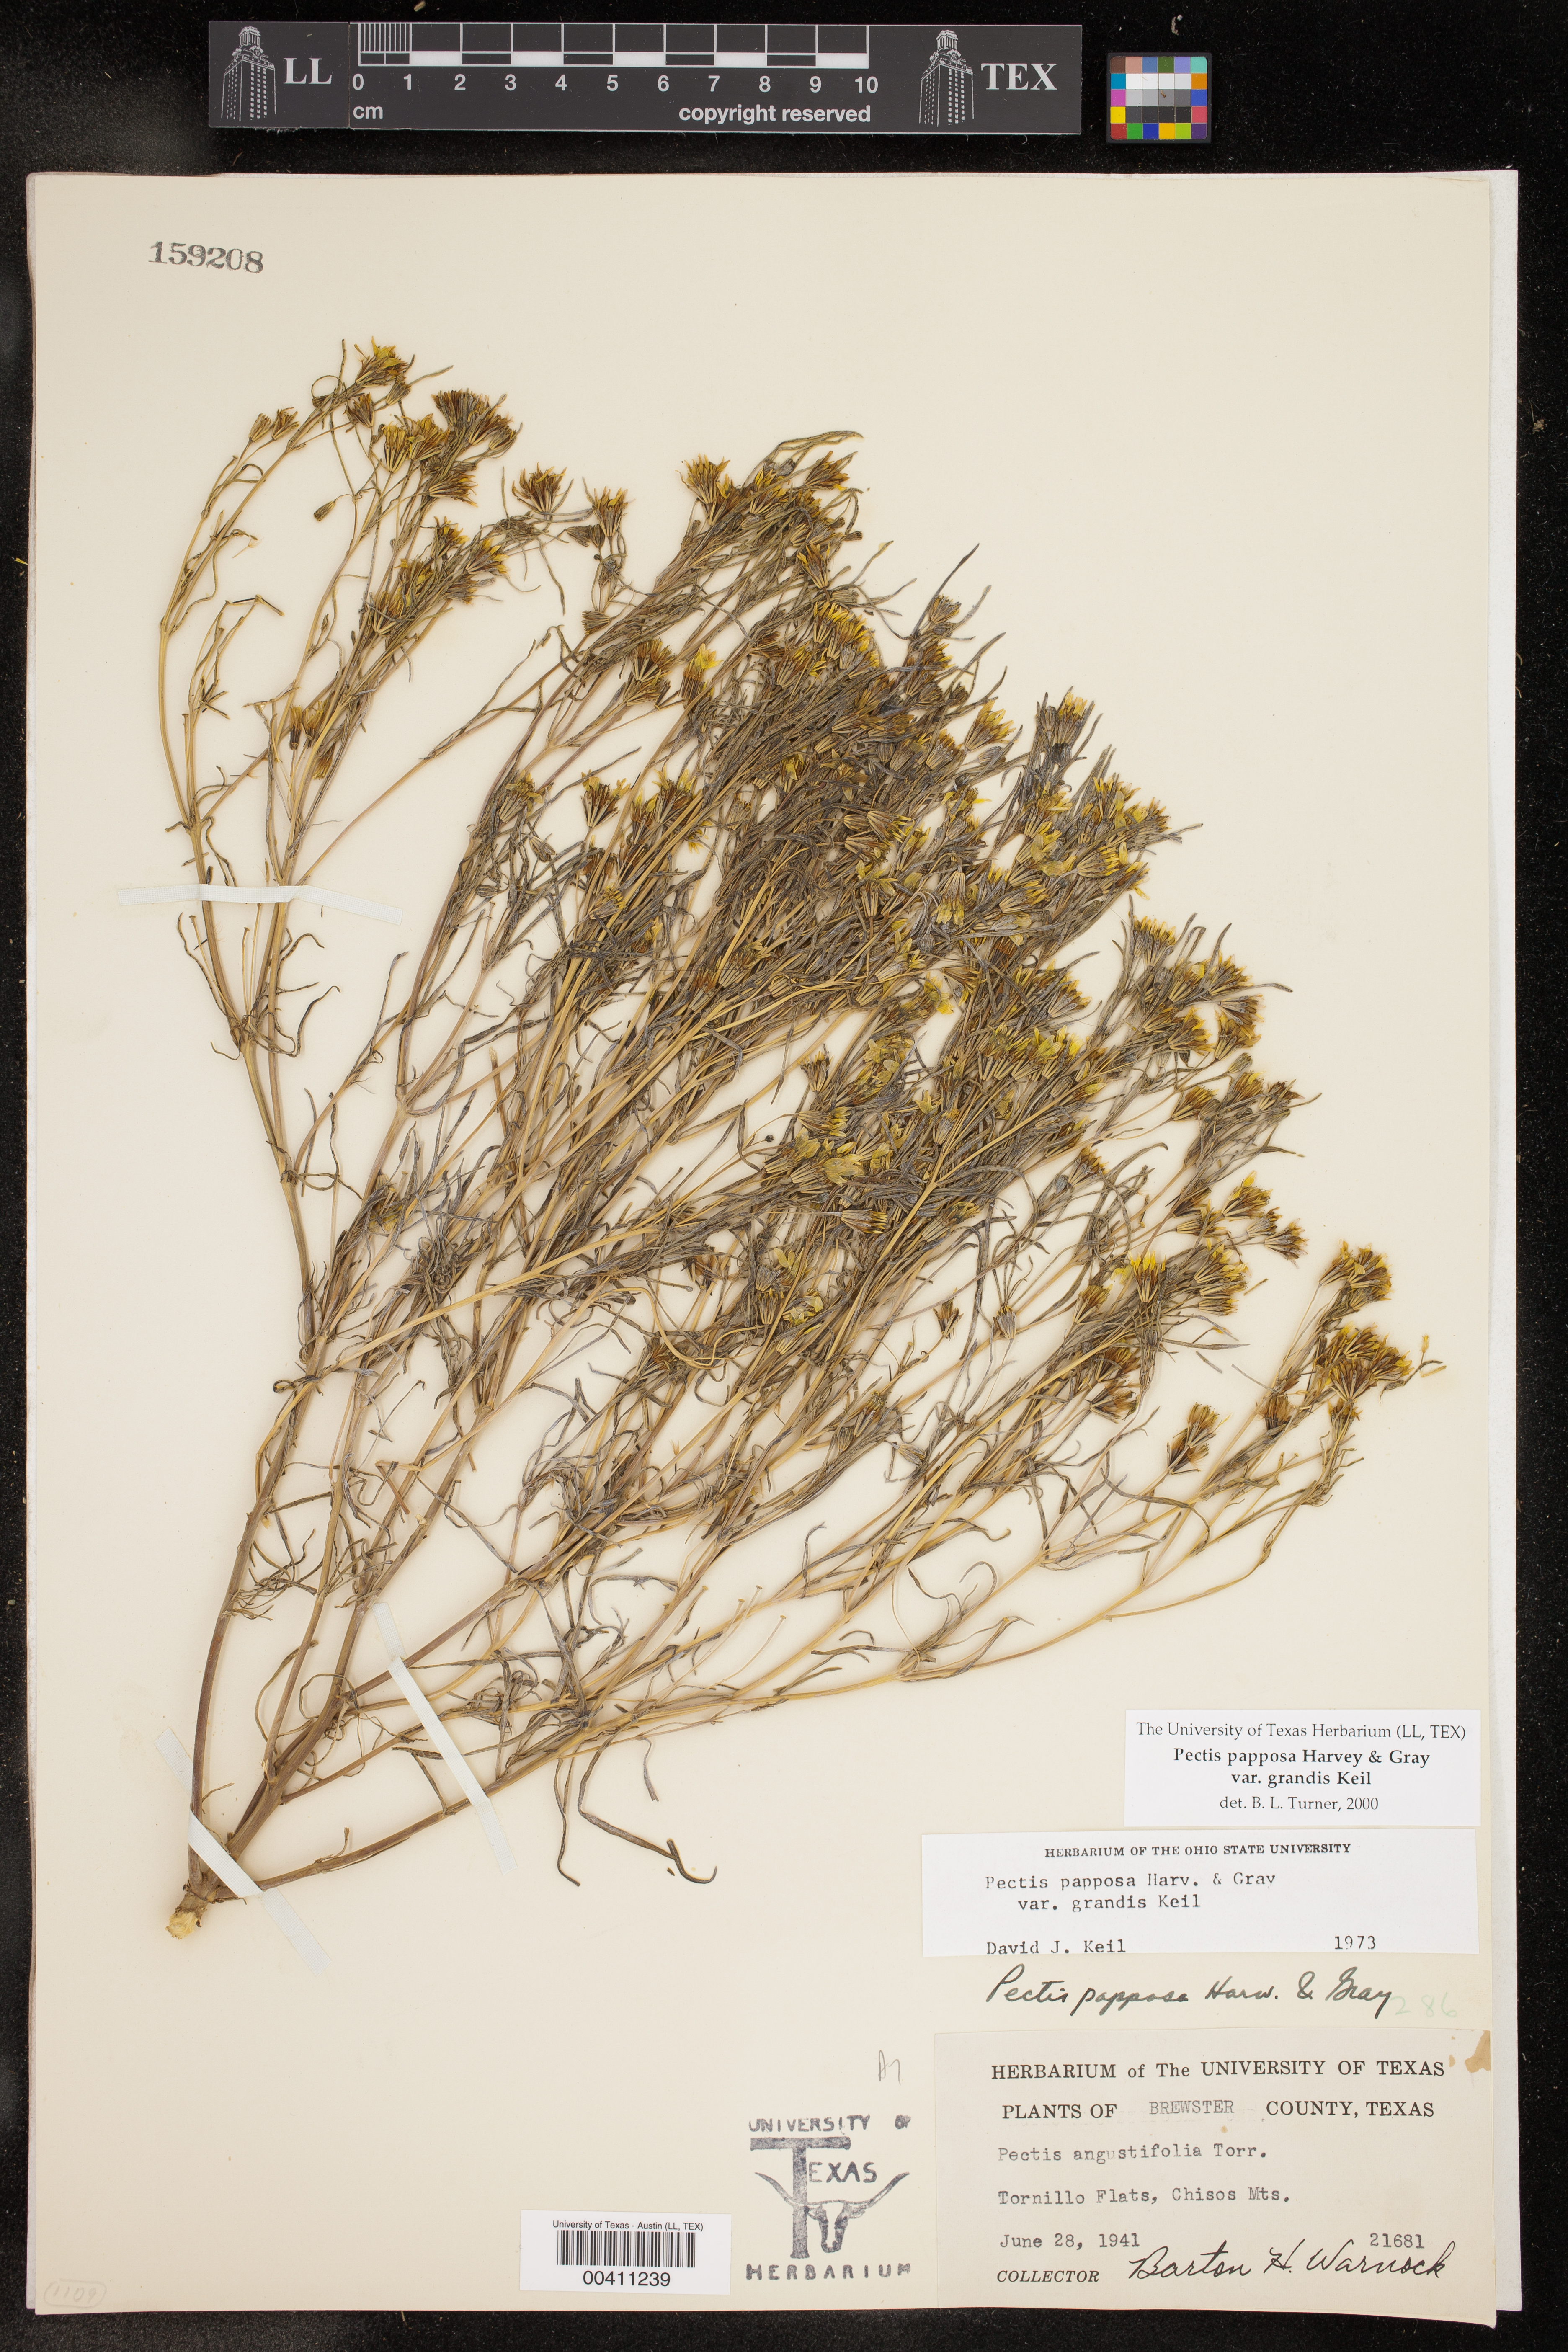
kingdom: Plantae
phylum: Tracheophyta
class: Magnoliopsida
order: Asterales
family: Asteraceae
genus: Pectis
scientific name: Pectis papposa
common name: Many-bristle chinchweed
